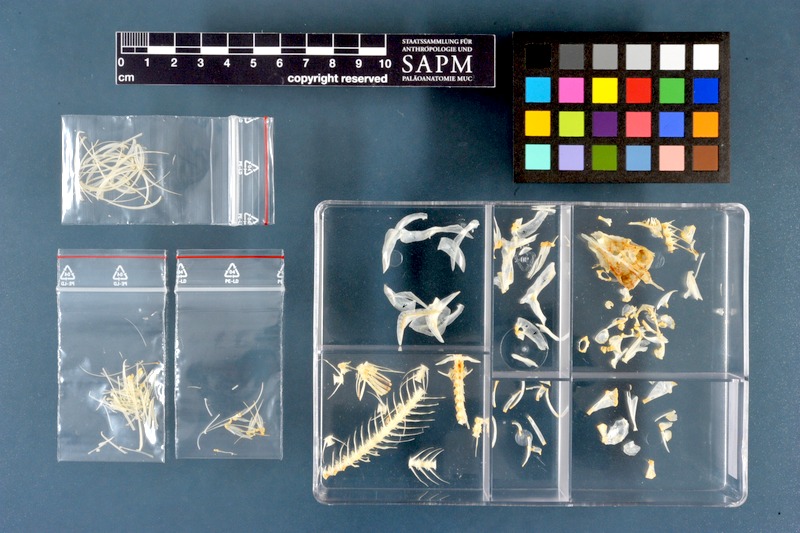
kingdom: Animalia
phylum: Chordata
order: Cypriniformes
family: Cyprinidae
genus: Alburnus
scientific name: Alburnus alburnus
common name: Bleak
